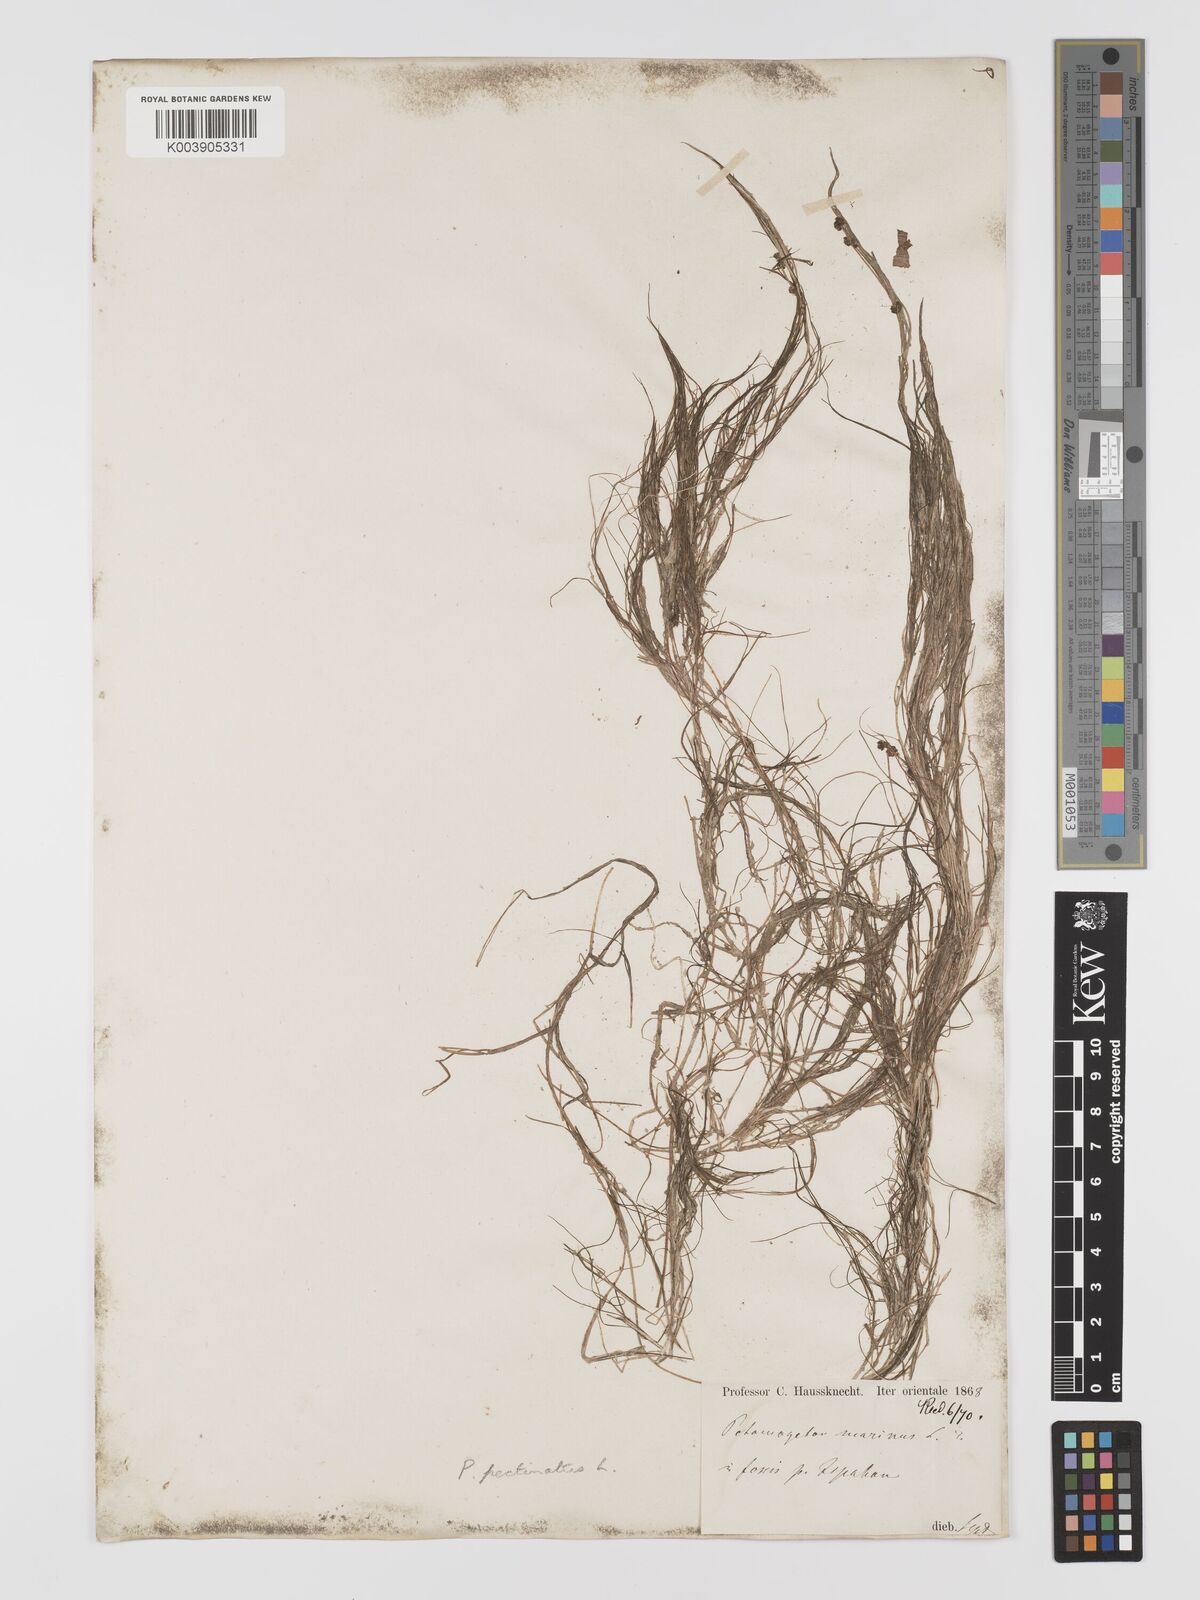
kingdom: Plantae
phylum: Tracheophyta
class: Liliopsida
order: Alismatales
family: Potamogetonaceae
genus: Stuckenia
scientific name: Stuckenia pectinata
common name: Sago pondweed
